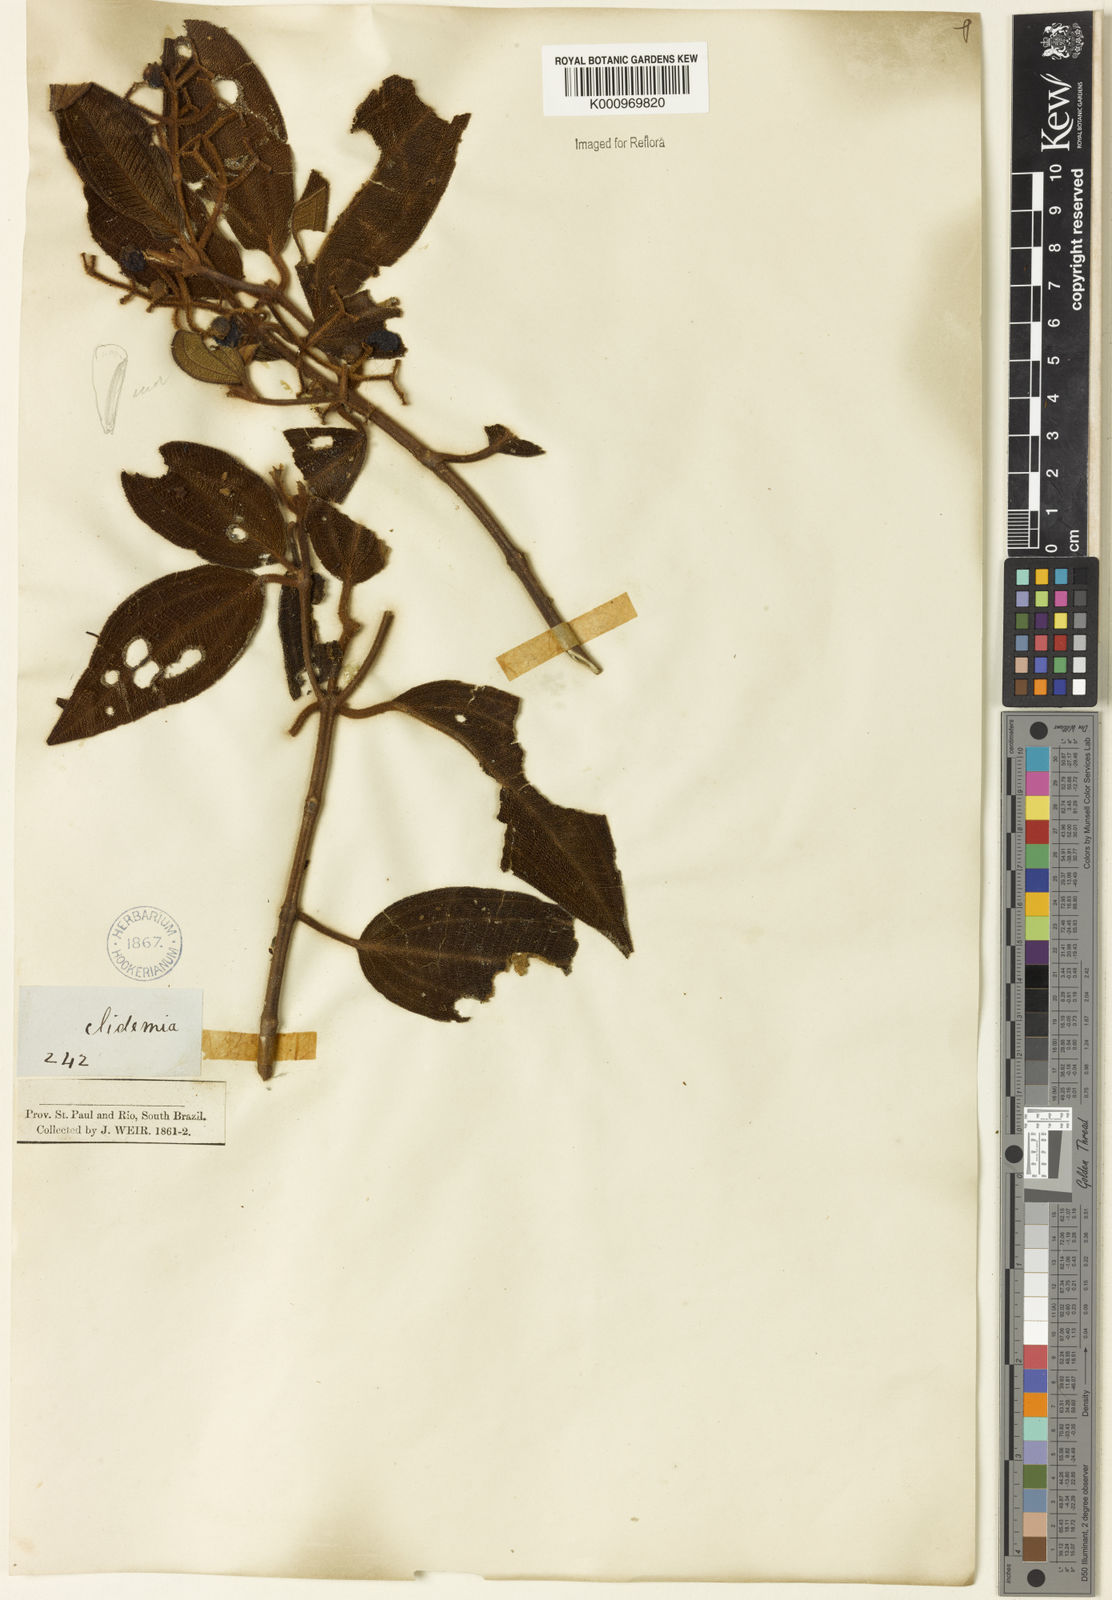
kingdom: Plantae
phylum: Tracheophyta
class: Magnoliopsida
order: Myrtales
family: Melastomataceae
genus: Miconia
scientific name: Miconia
